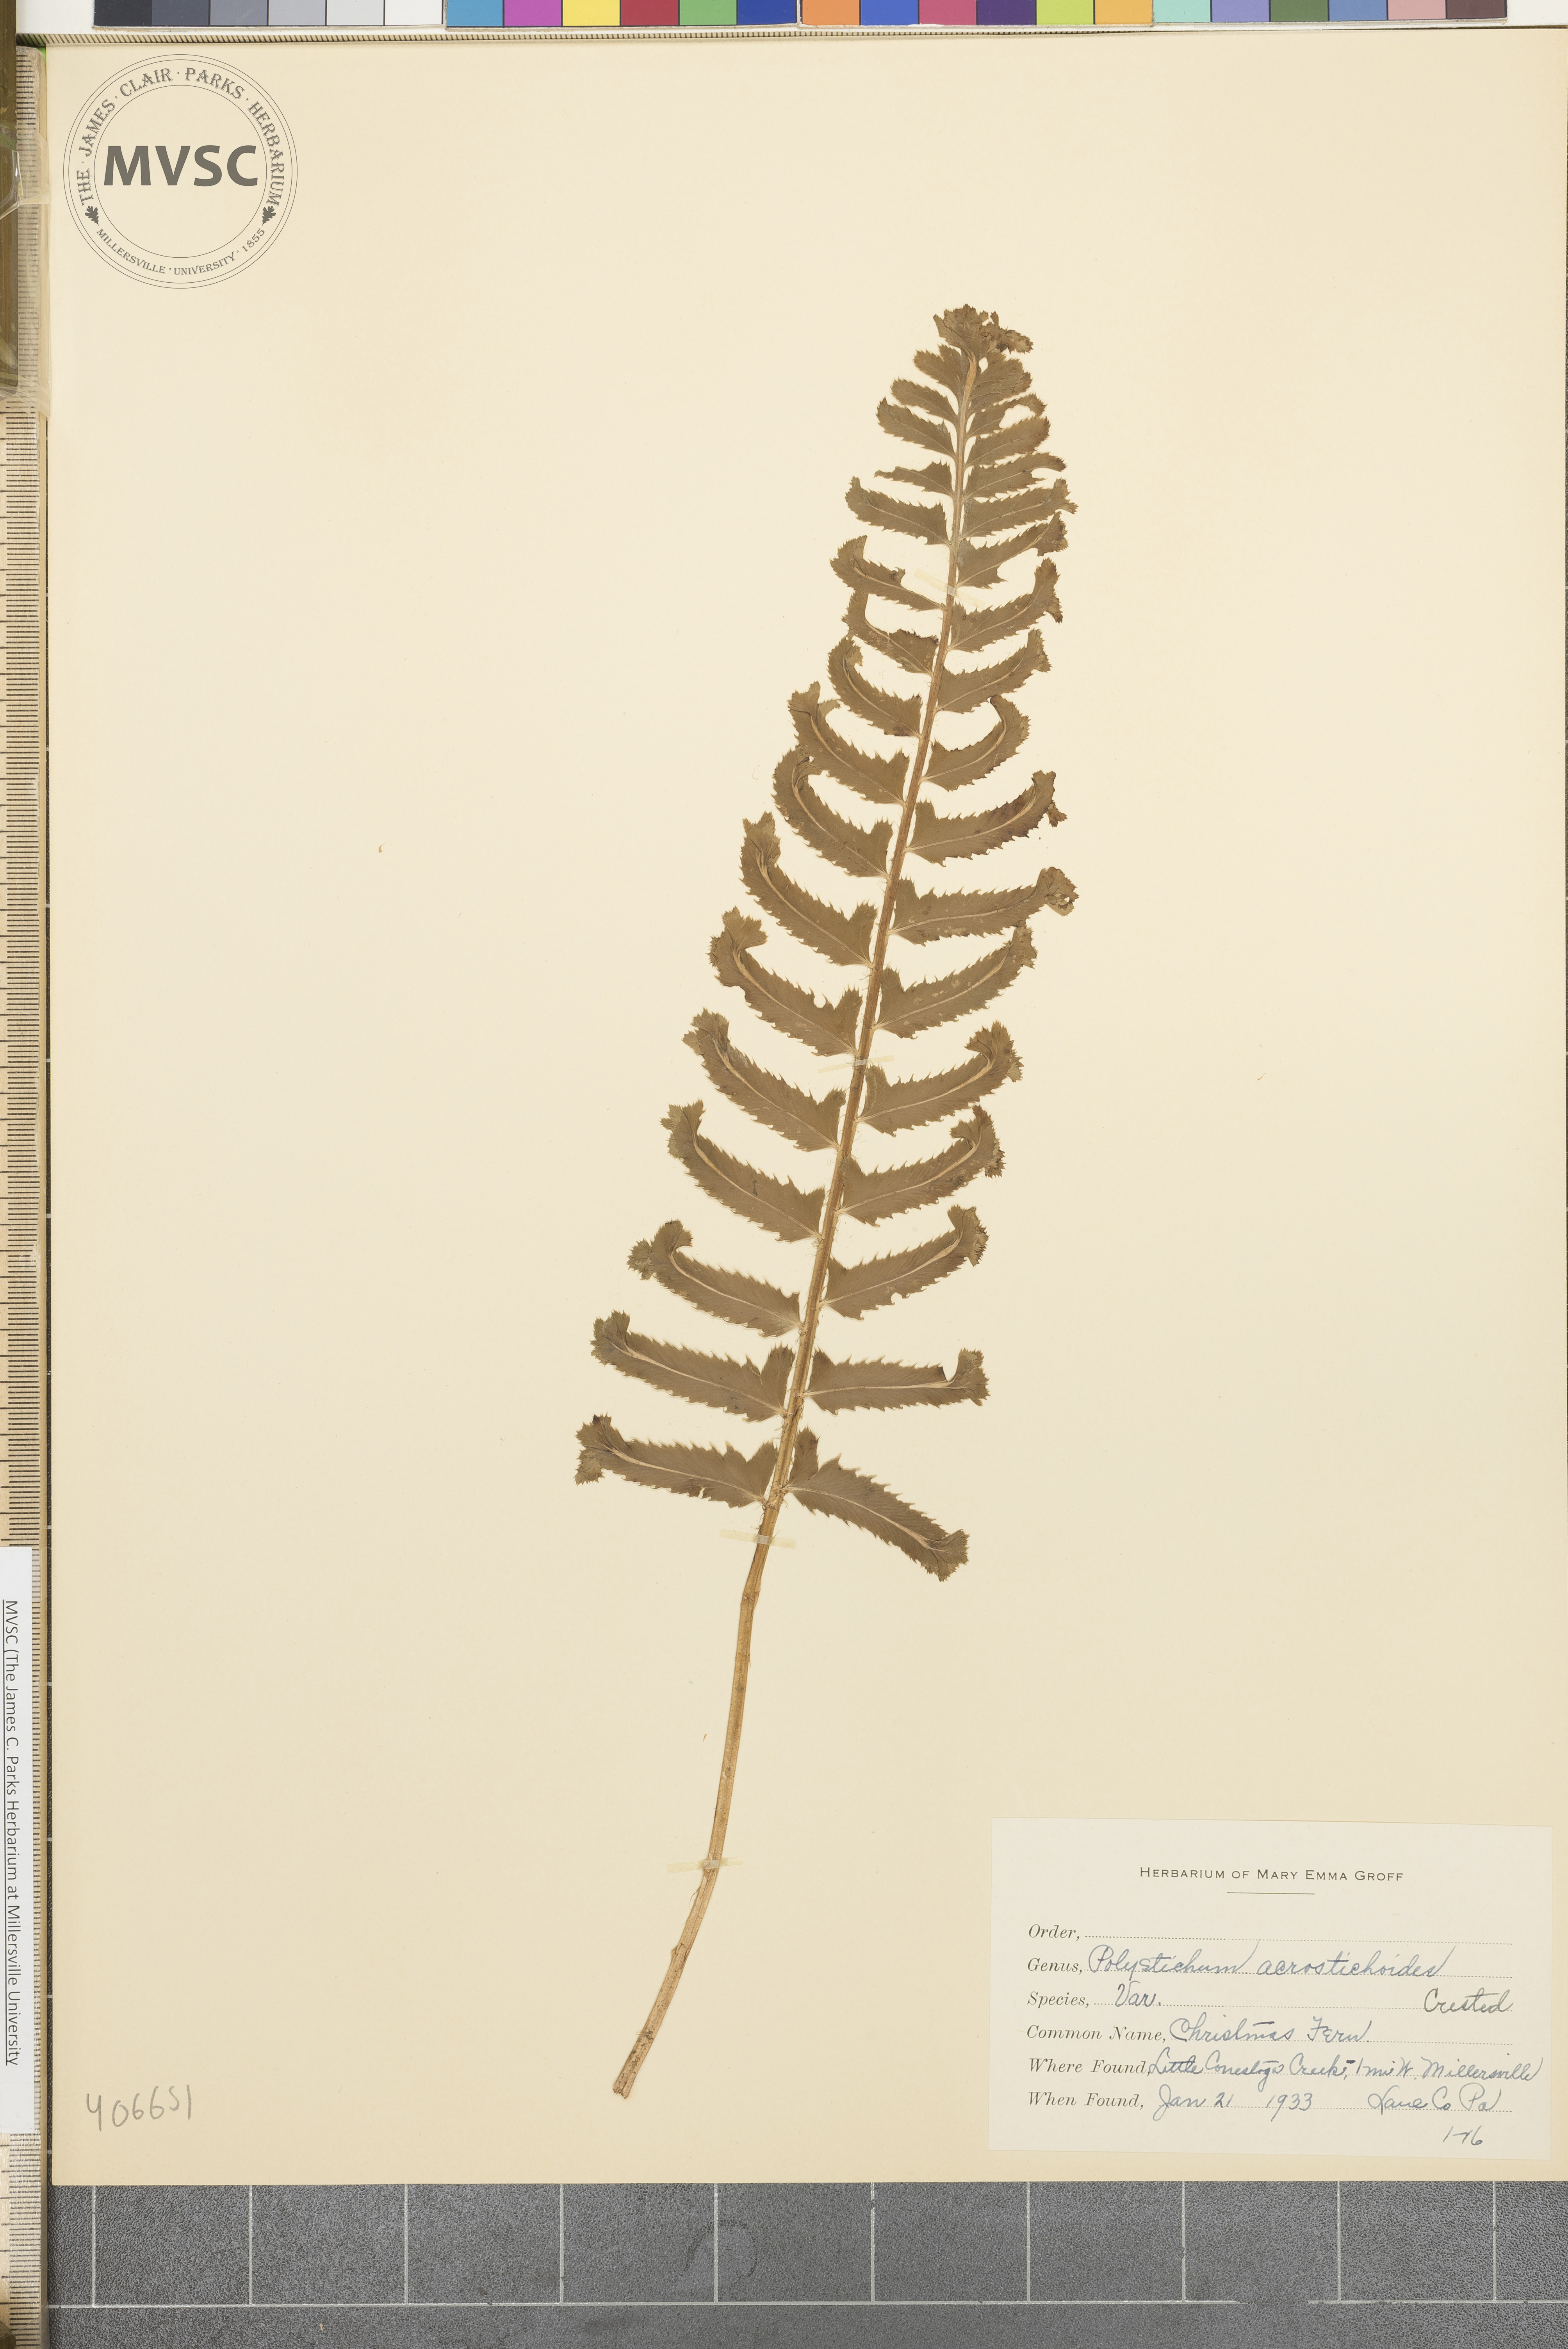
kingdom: Plantae
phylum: Tracheophyta
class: Polypodiopsida
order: Polypodiales
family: Dryopteridaceae
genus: Polystichum
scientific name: Polystichum acrostichoides
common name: Christmas fern
